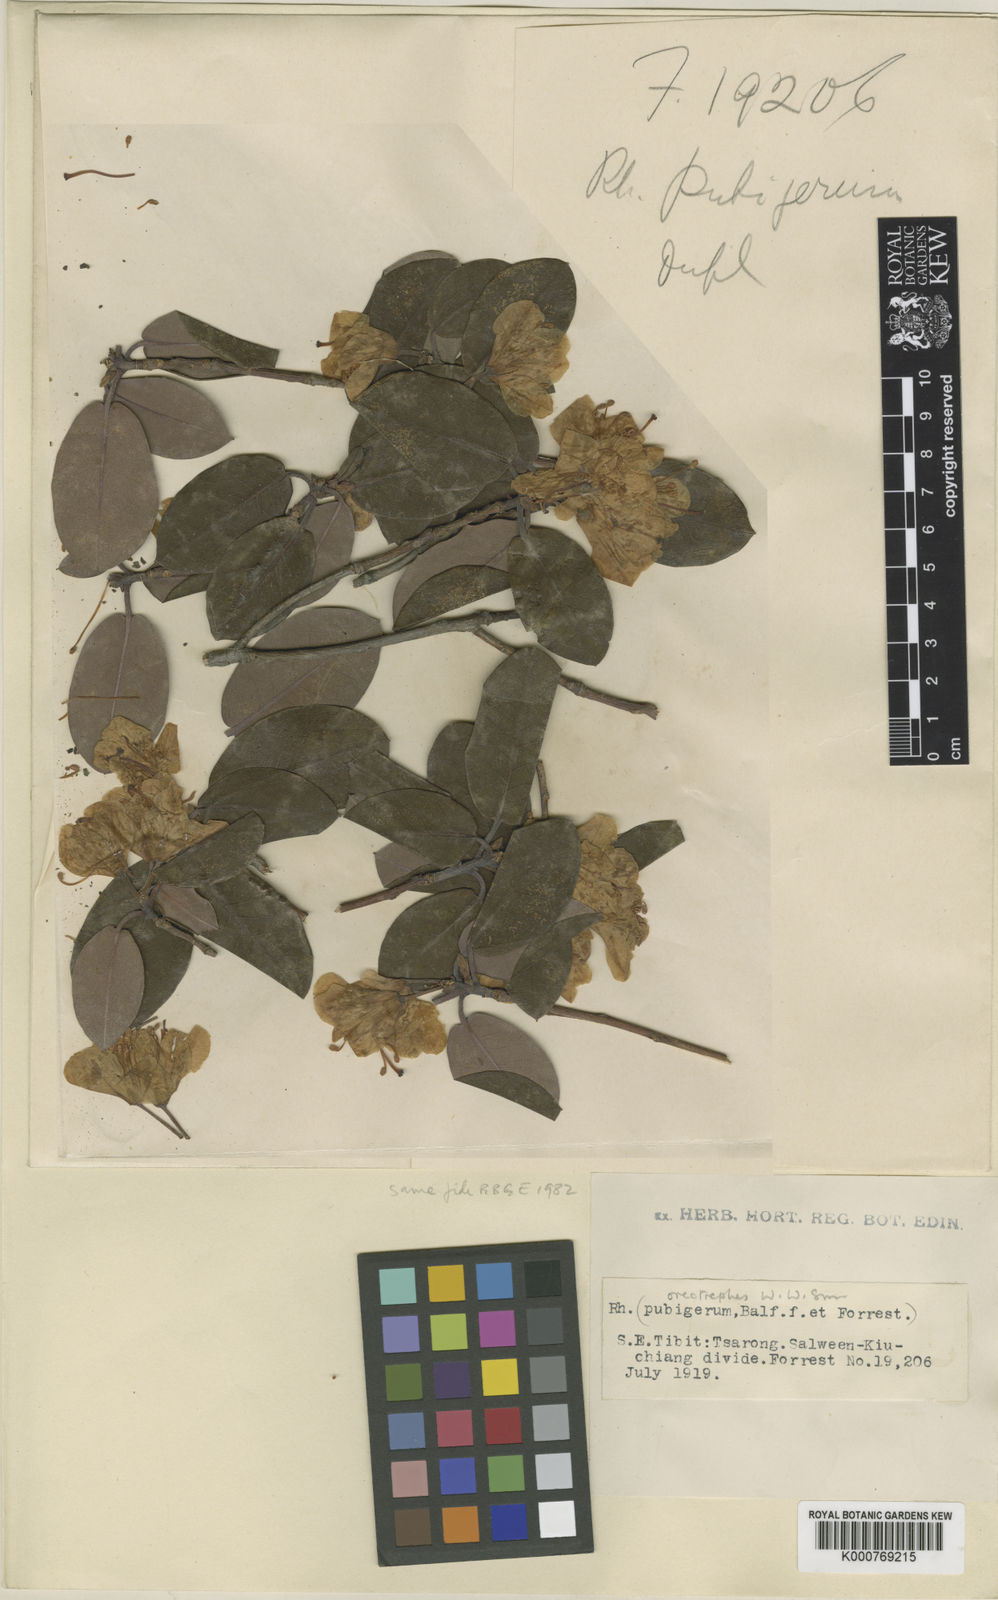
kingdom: Plantae
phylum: Tracheophyta
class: Magnoliopsida
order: Ericales
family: Ericaceae
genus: Rhododendron
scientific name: Rhododendron oreotrephes
